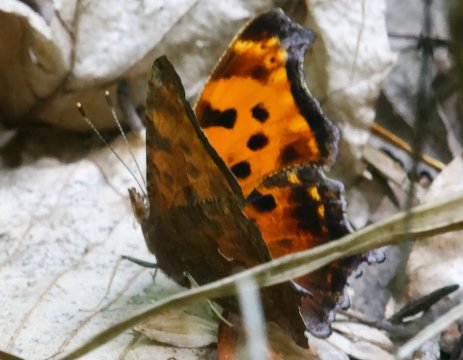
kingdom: Animalia
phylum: Arthropoda
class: Insecta
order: Lepidoptera
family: Nymphalidae
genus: Polygonia
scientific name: Polygonia progne
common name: Gray Comma
